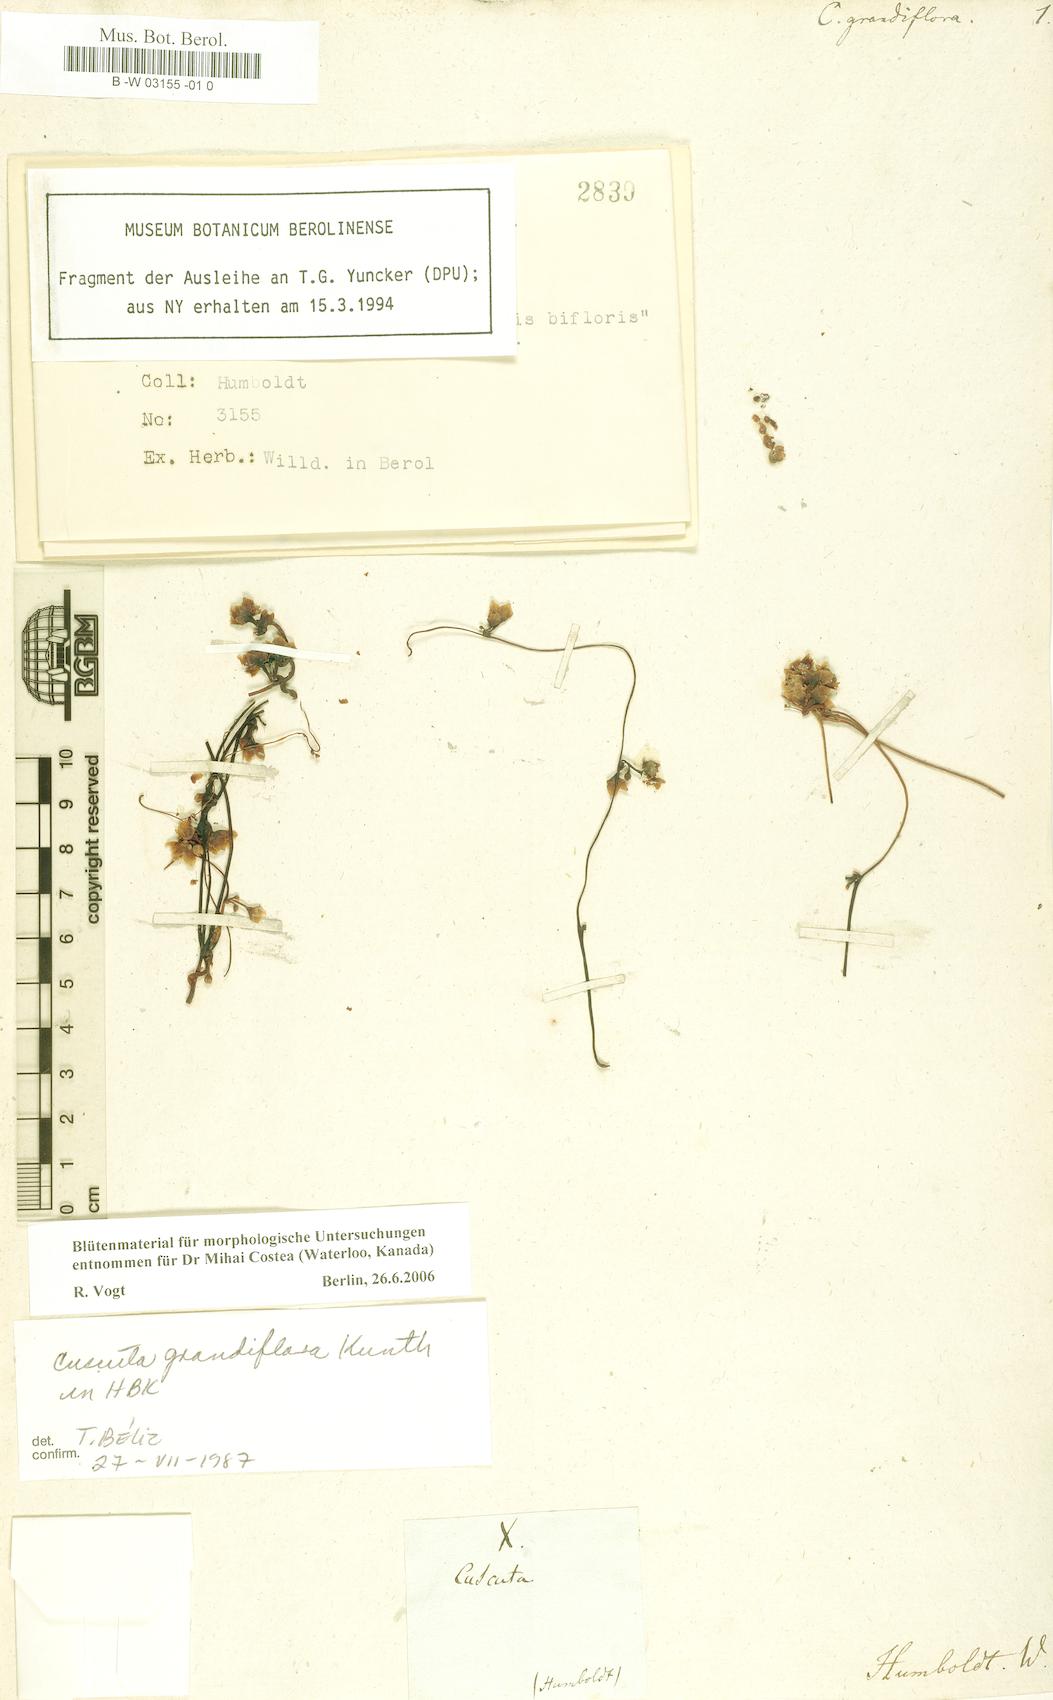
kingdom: Plantae
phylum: Tracheophyta
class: Magnoliopsida
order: Solanales
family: Convolvulaceae
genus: Cuscuta
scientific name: Cuscuta grandiflora
